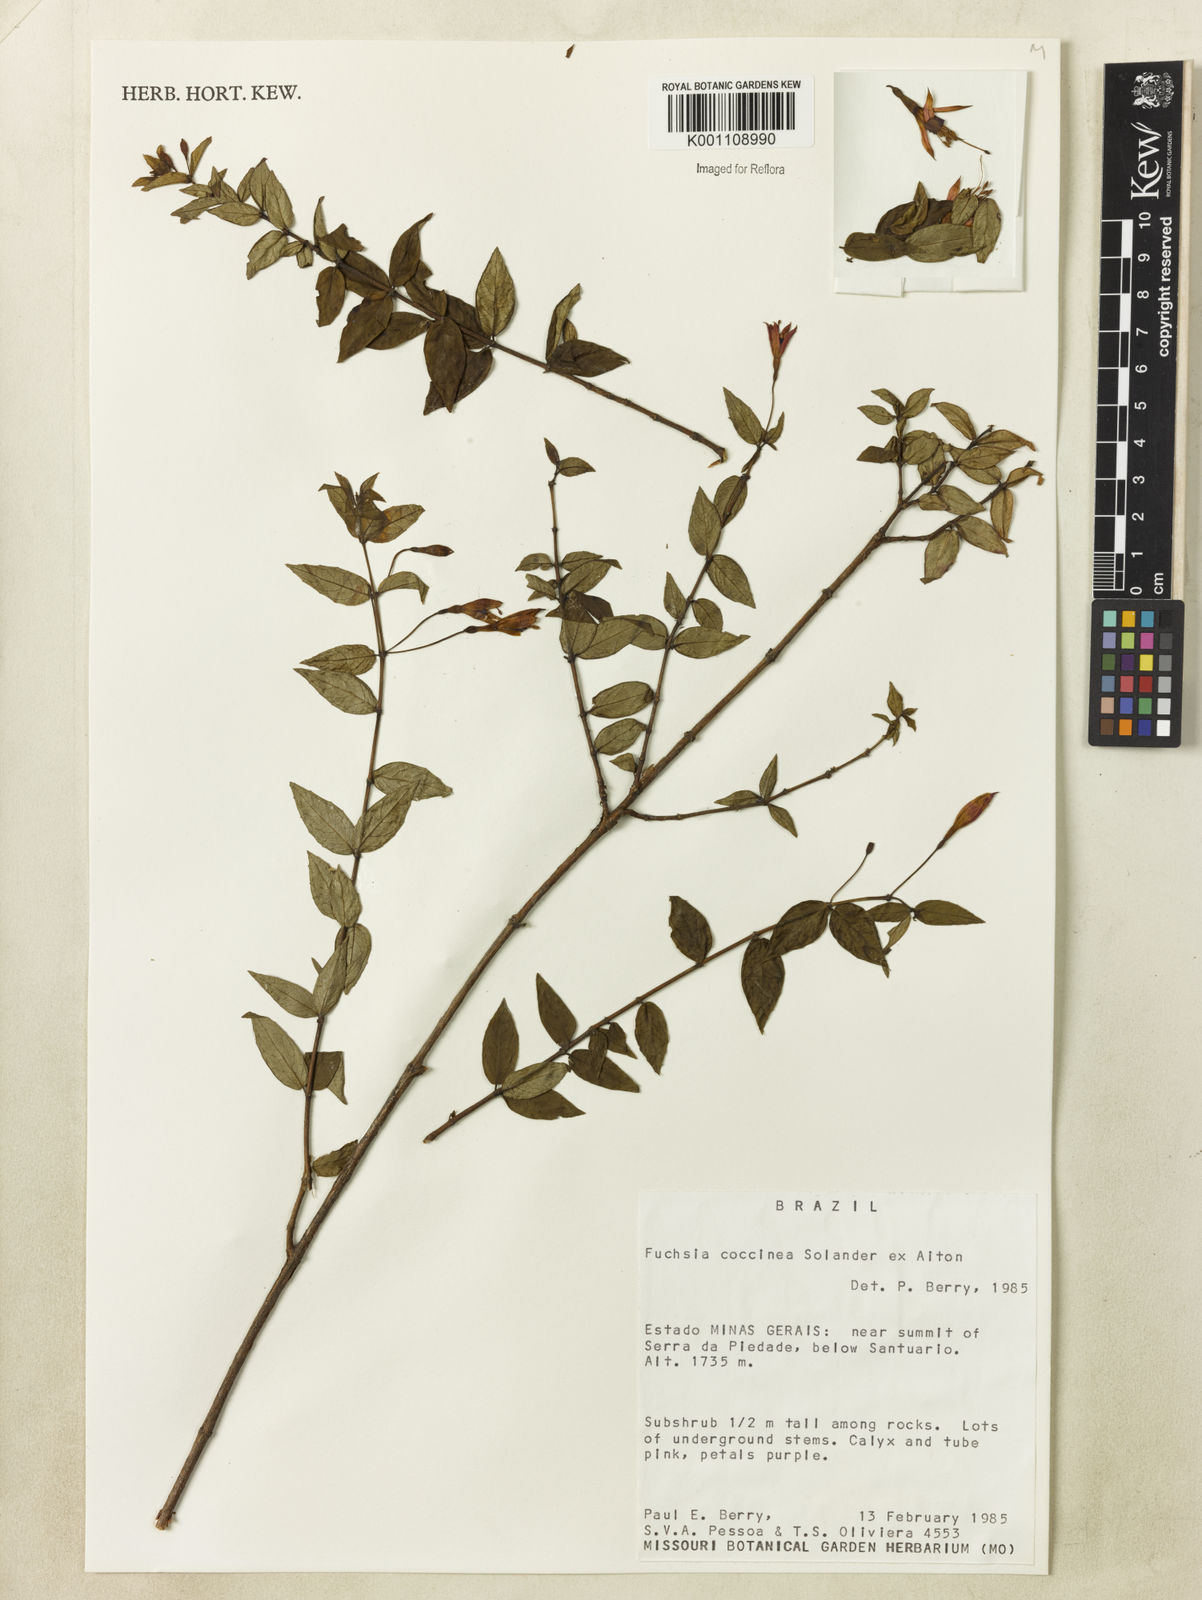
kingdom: Plantae
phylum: Tracheophyta
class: Magnoliopsida
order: Myrtales
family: Onagraceae
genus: Fuchsia
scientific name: Fuchsia
